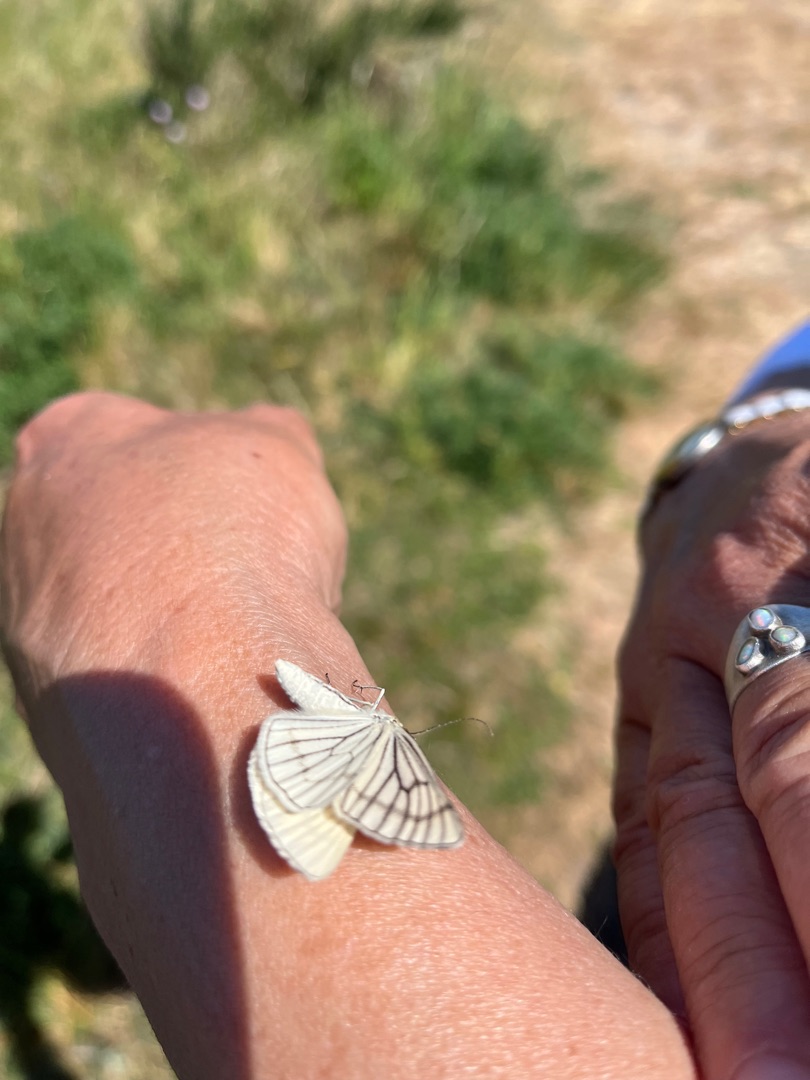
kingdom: Animalia
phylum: Arthropoda
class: Insecta
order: Lepidoptera
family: Geometridae
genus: Siona
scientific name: Siona lineata
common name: Hvidvingemåler
